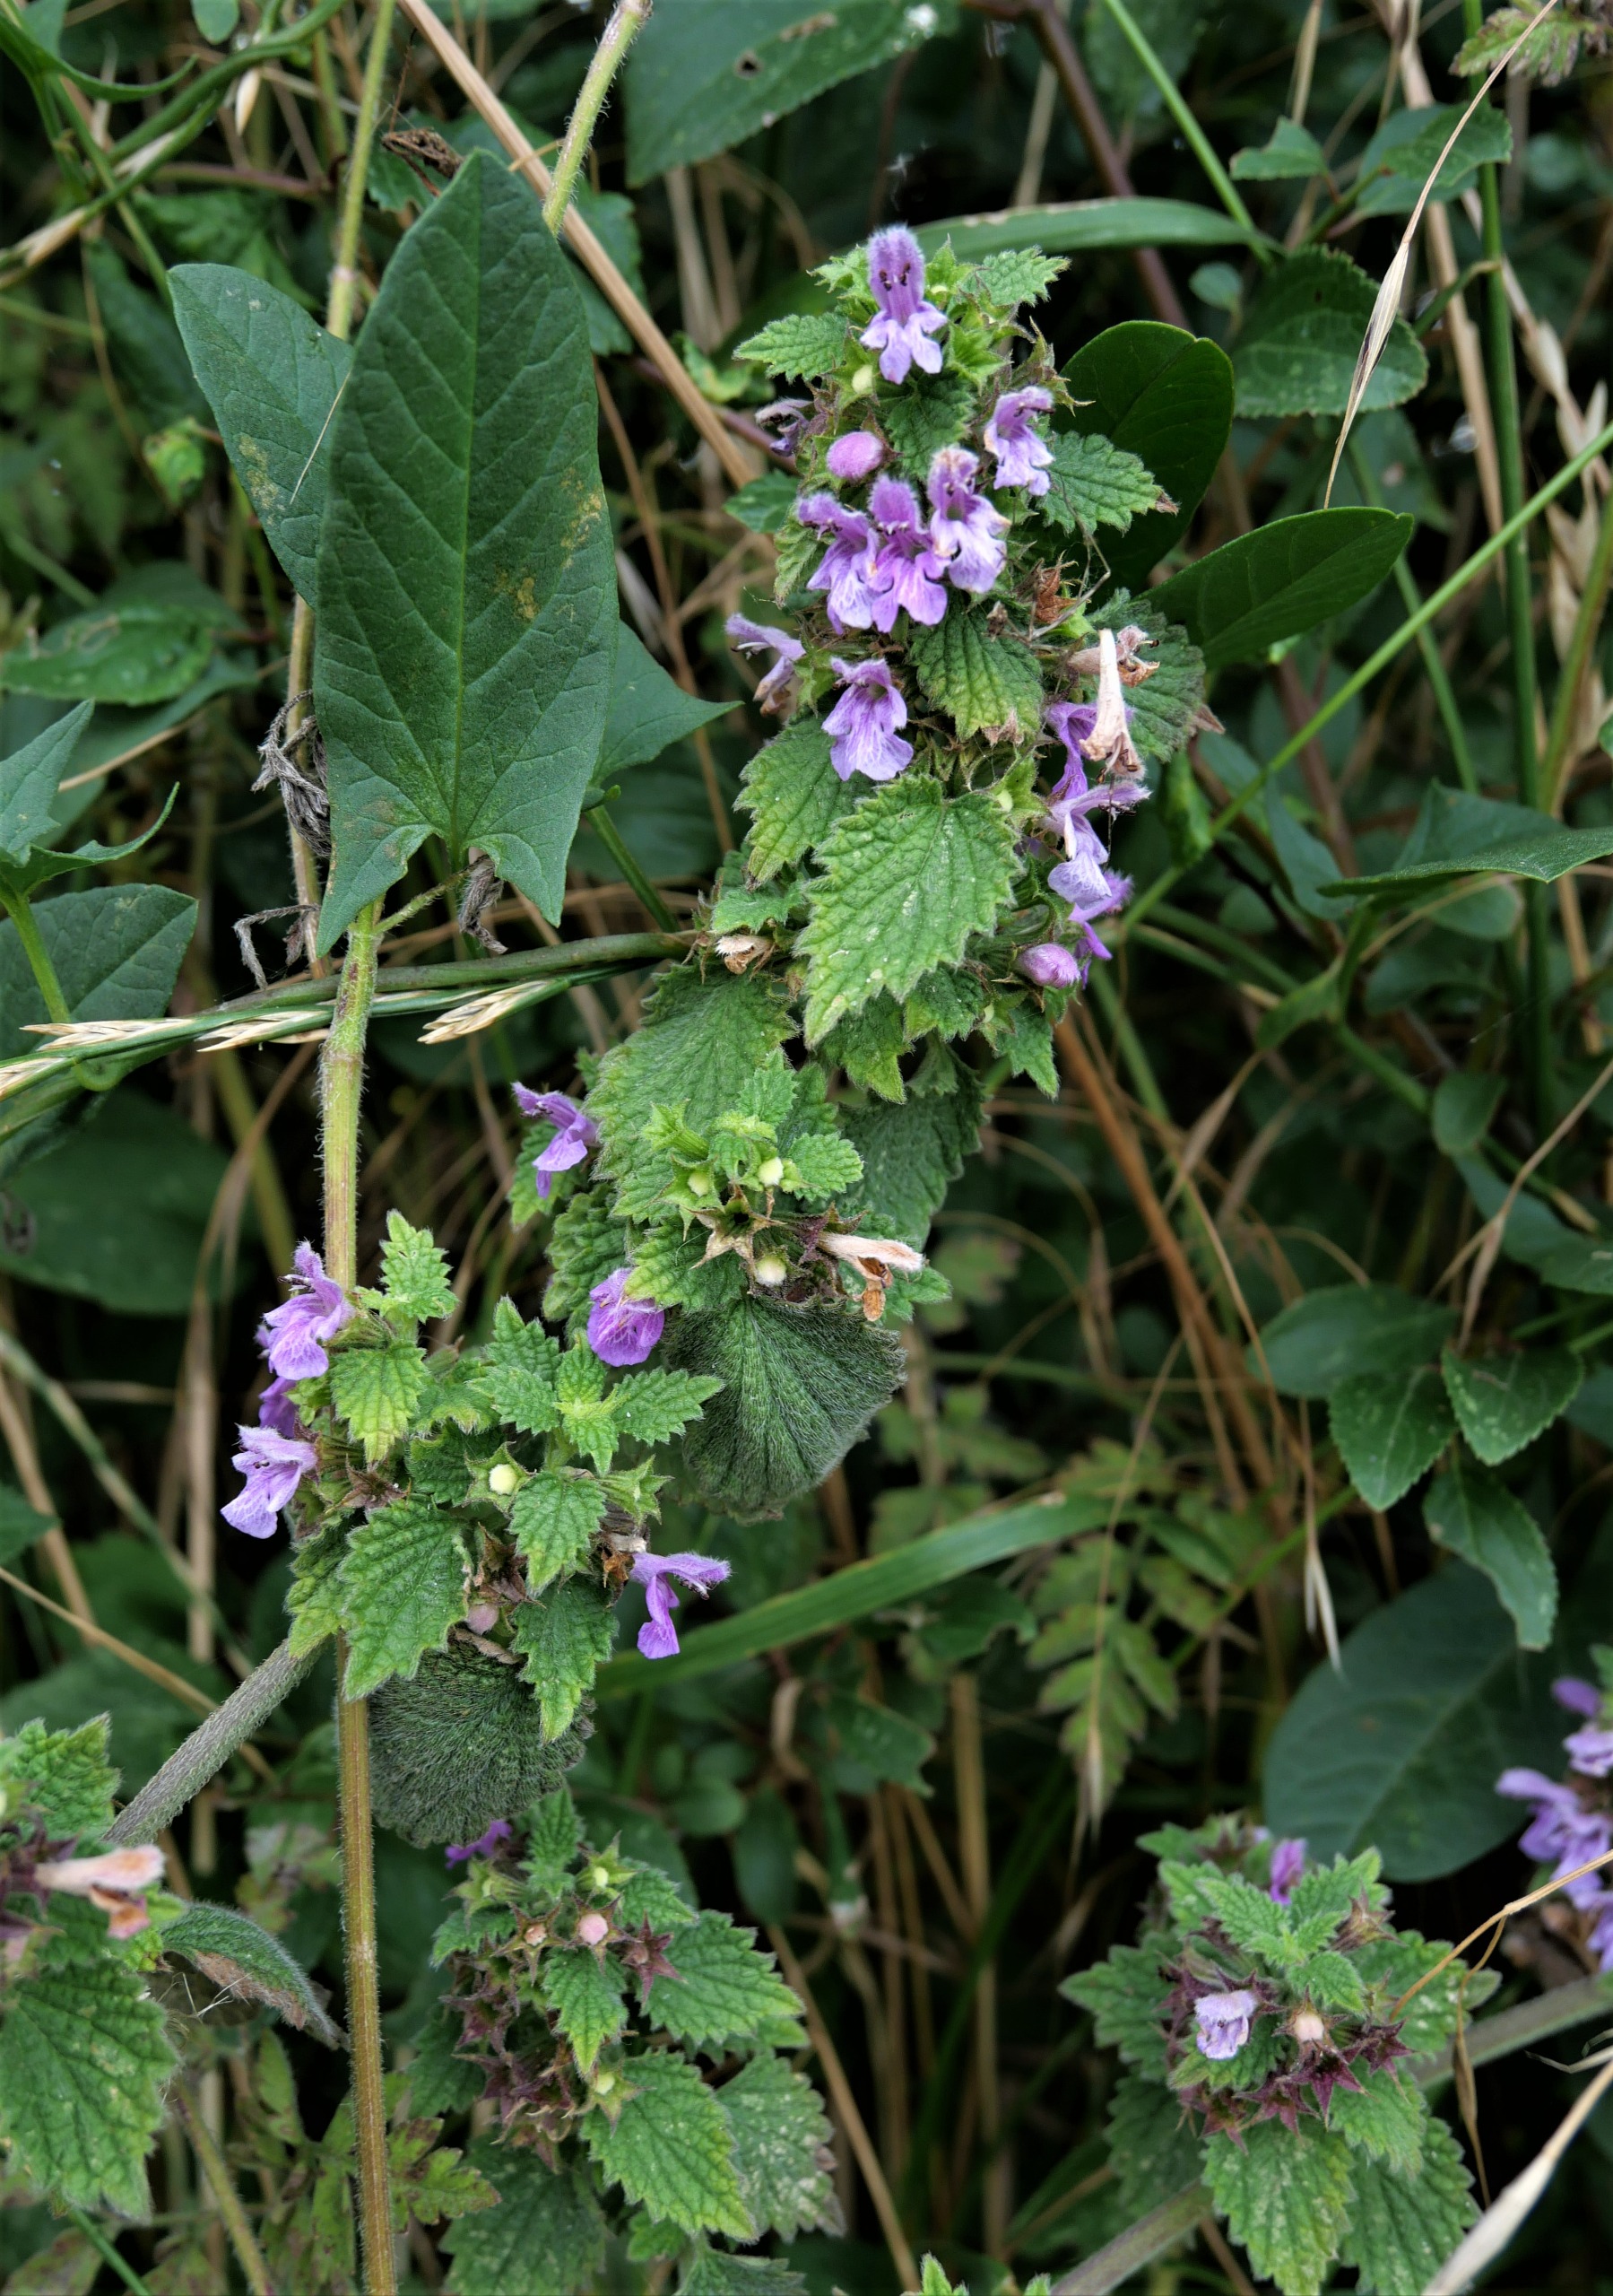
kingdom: Plantae
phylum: Tracheophyta
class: Magnoliopsida
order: Lamiales
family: Lamiaceae
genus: Ballota
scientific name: Ballota nigra
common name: Tandbæger
